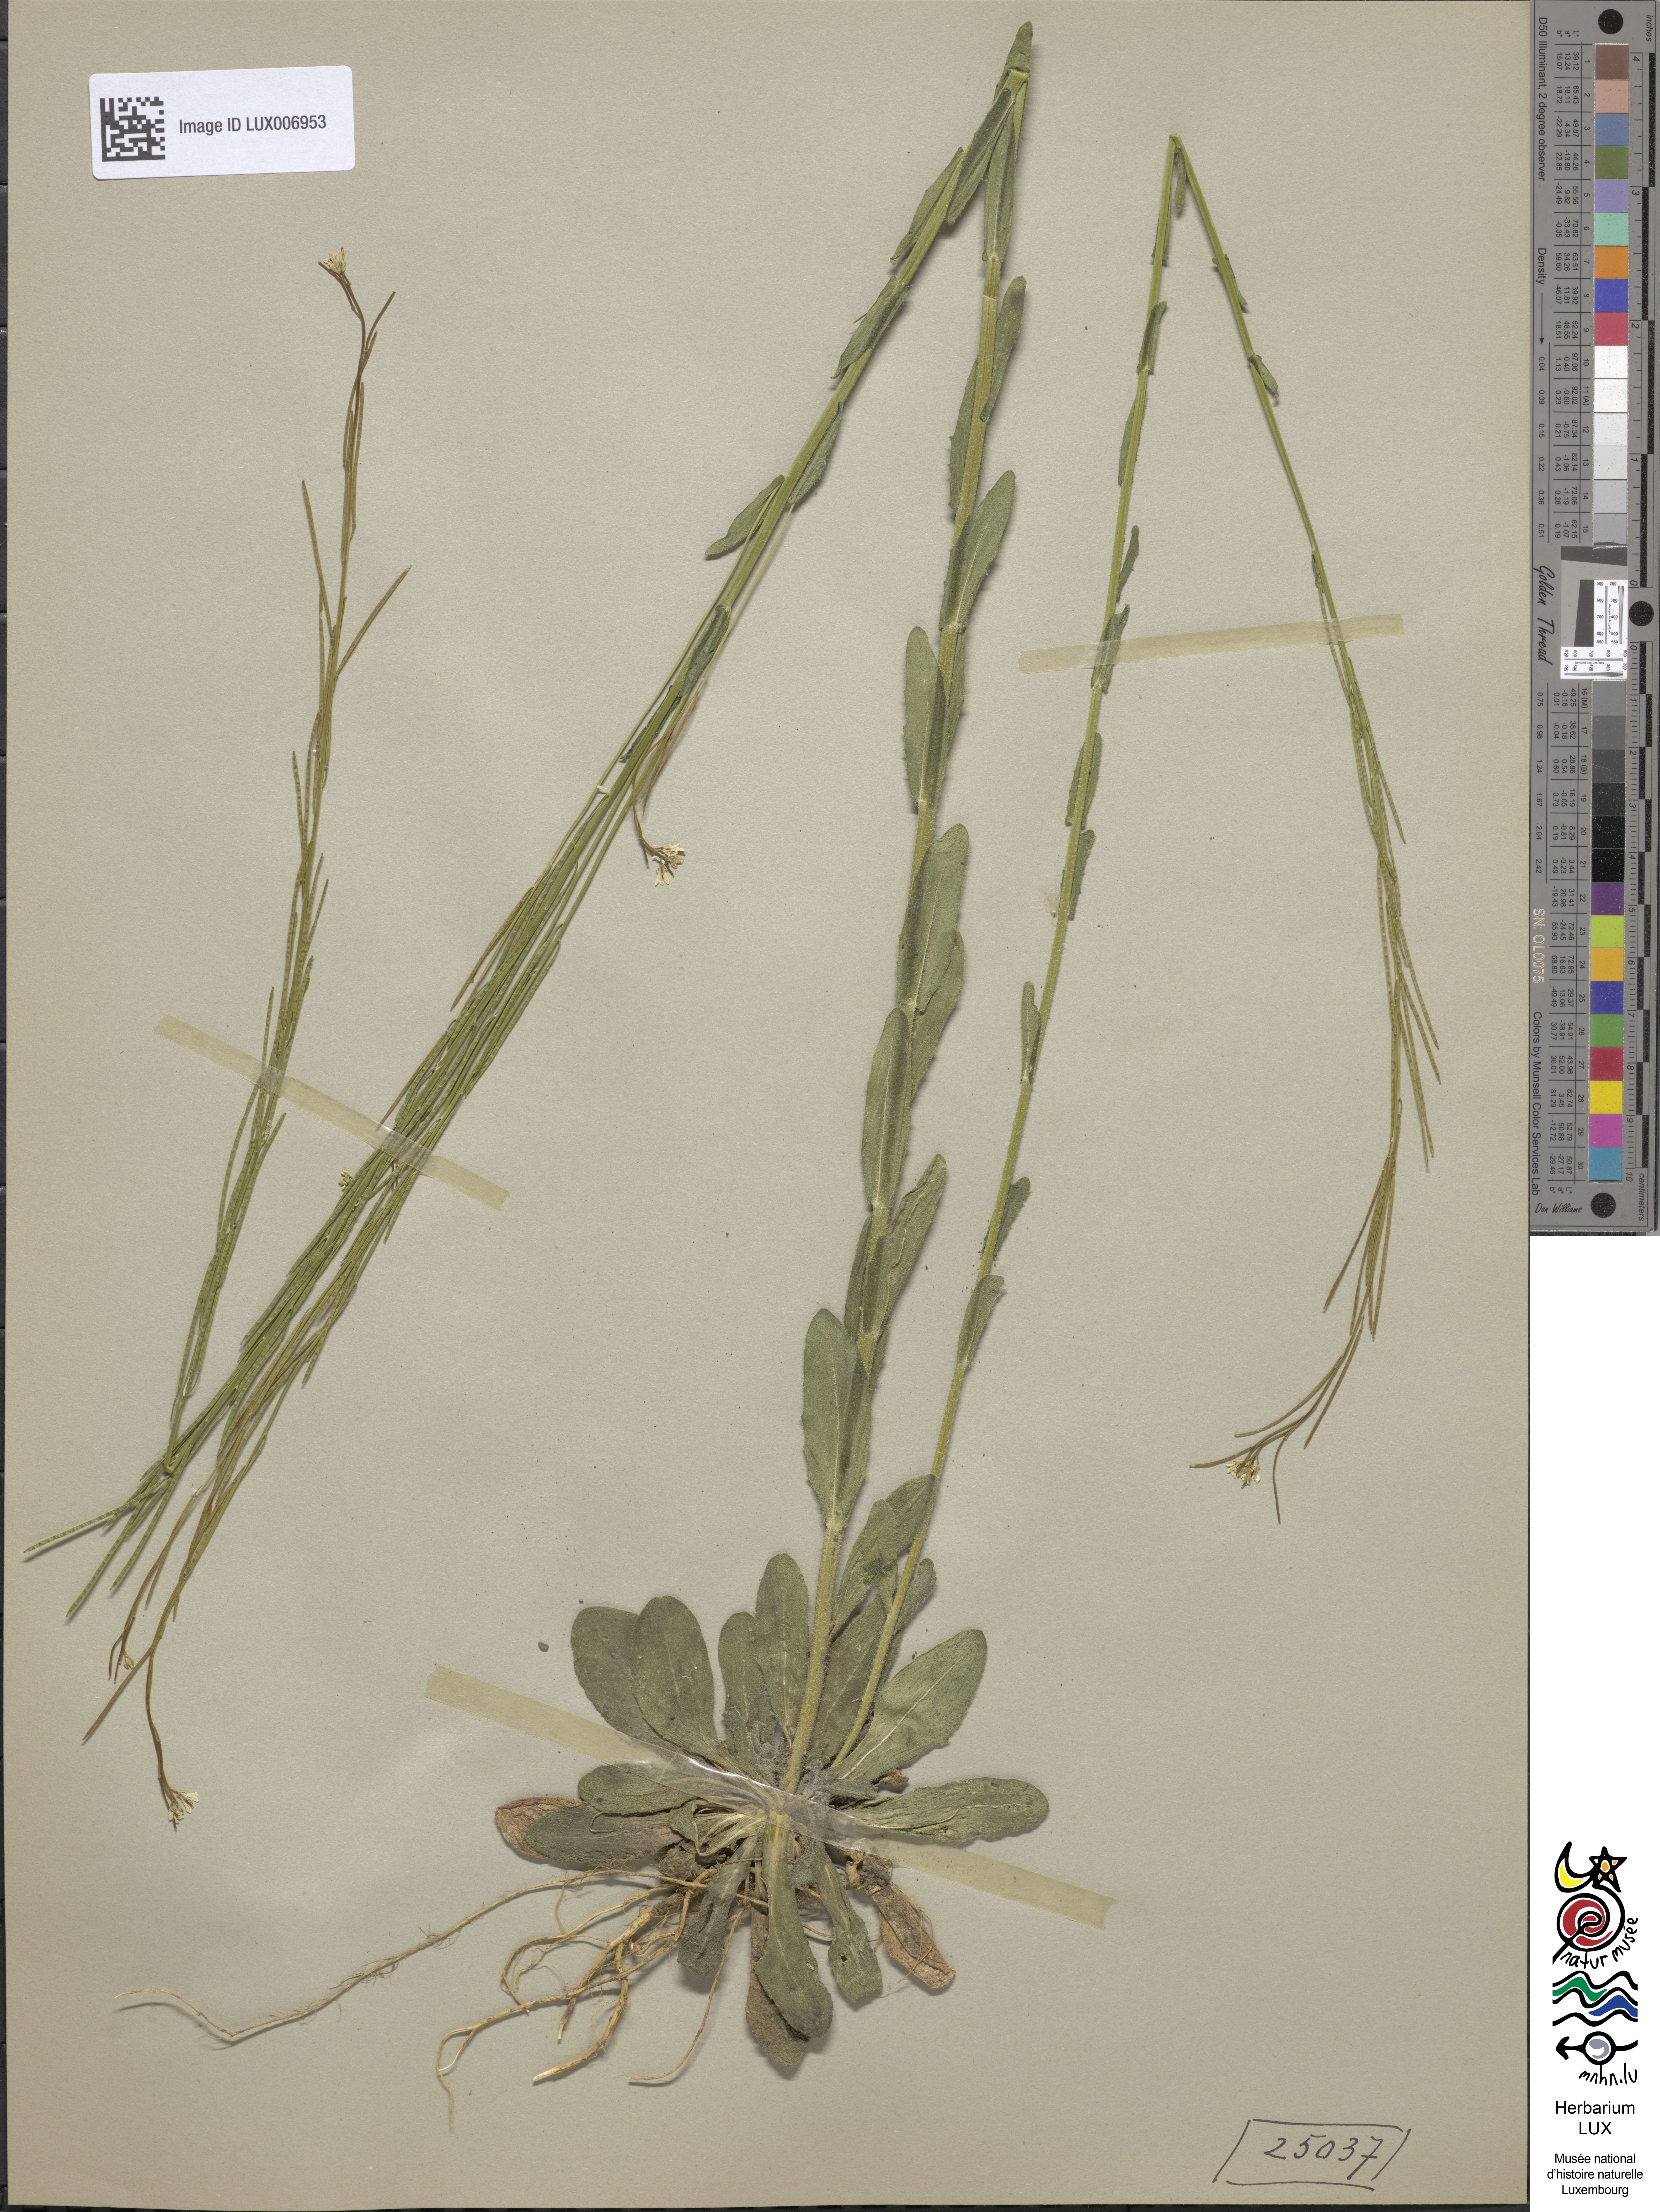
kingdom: Plantae
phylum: Tracheophyta
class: Magnoliopsida
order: Brassicales
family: Brassicaceae
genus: Arabis
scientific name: Arabis hirsuta
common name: Hairy rock-cress
